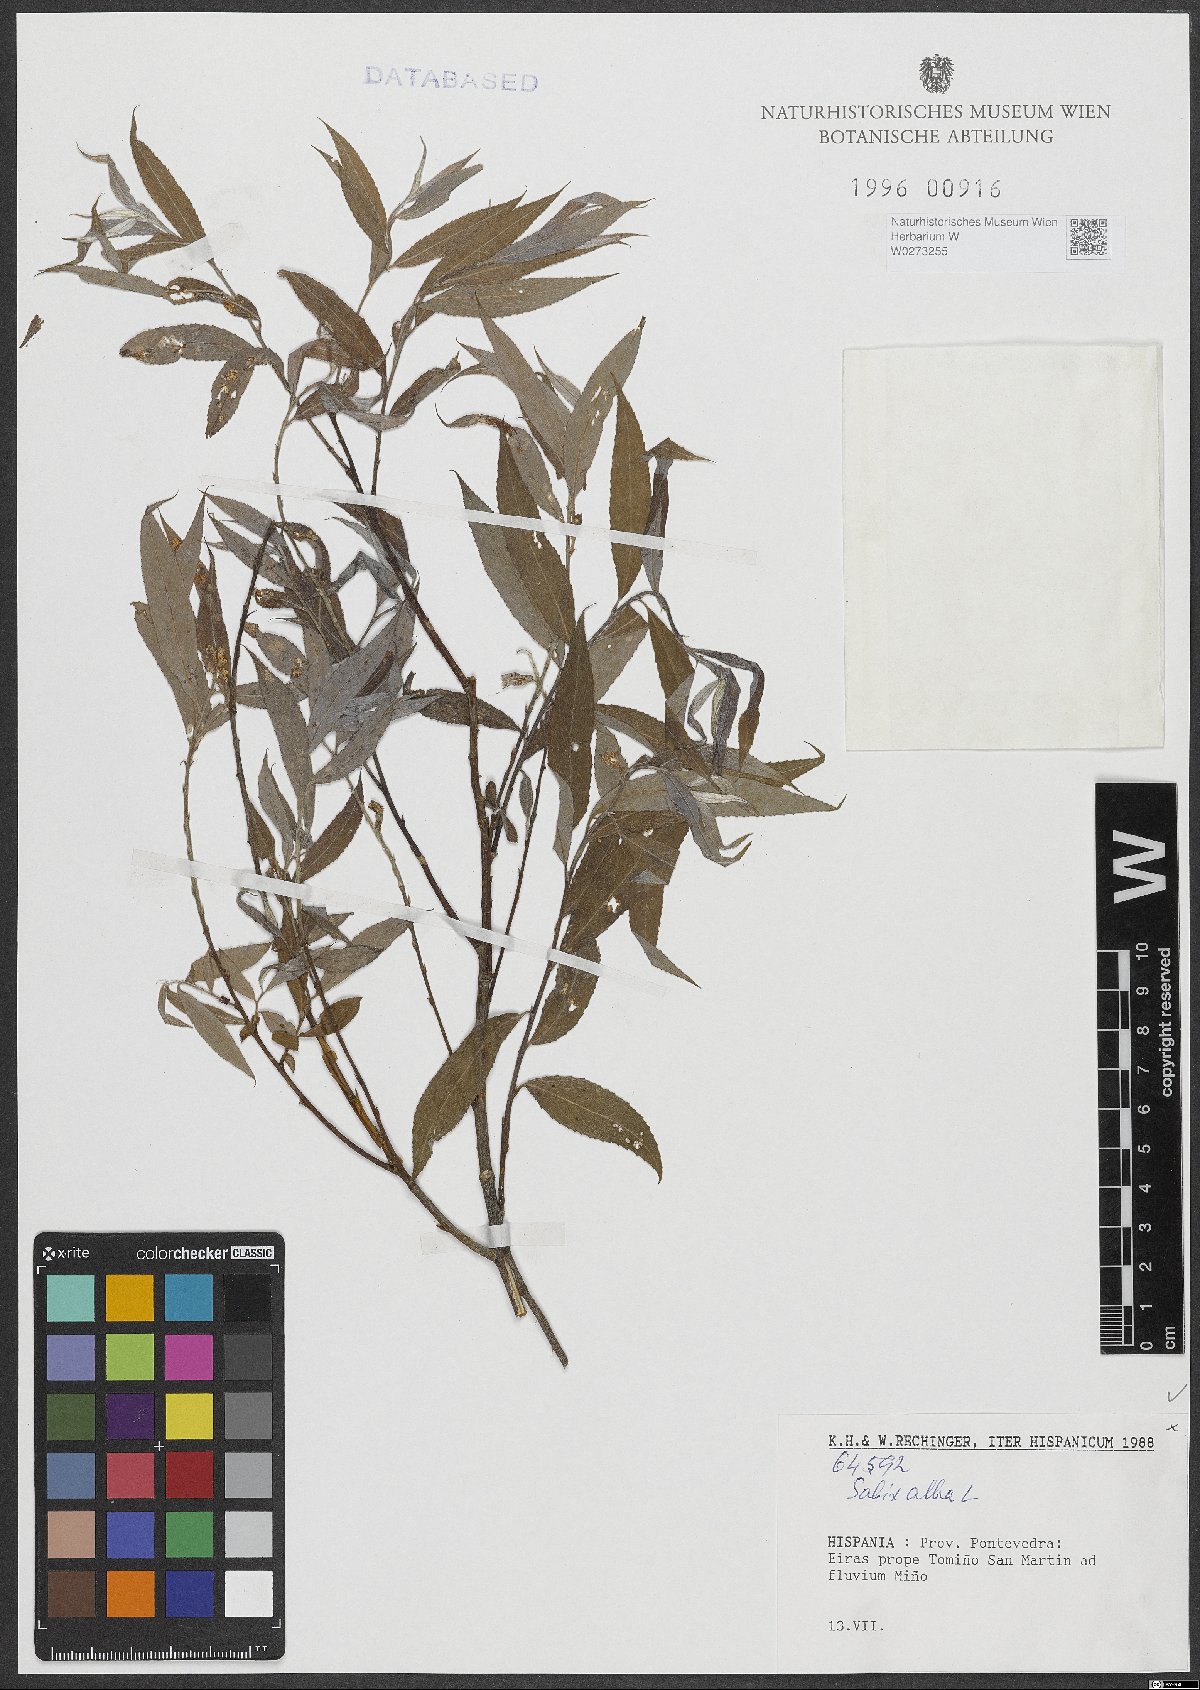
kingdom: Plantae
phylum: Tracheophyta
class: Magnoliopsida
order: Malpighiales
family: Salicaceae
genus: Salix
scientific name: Salix alba
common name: White willow
